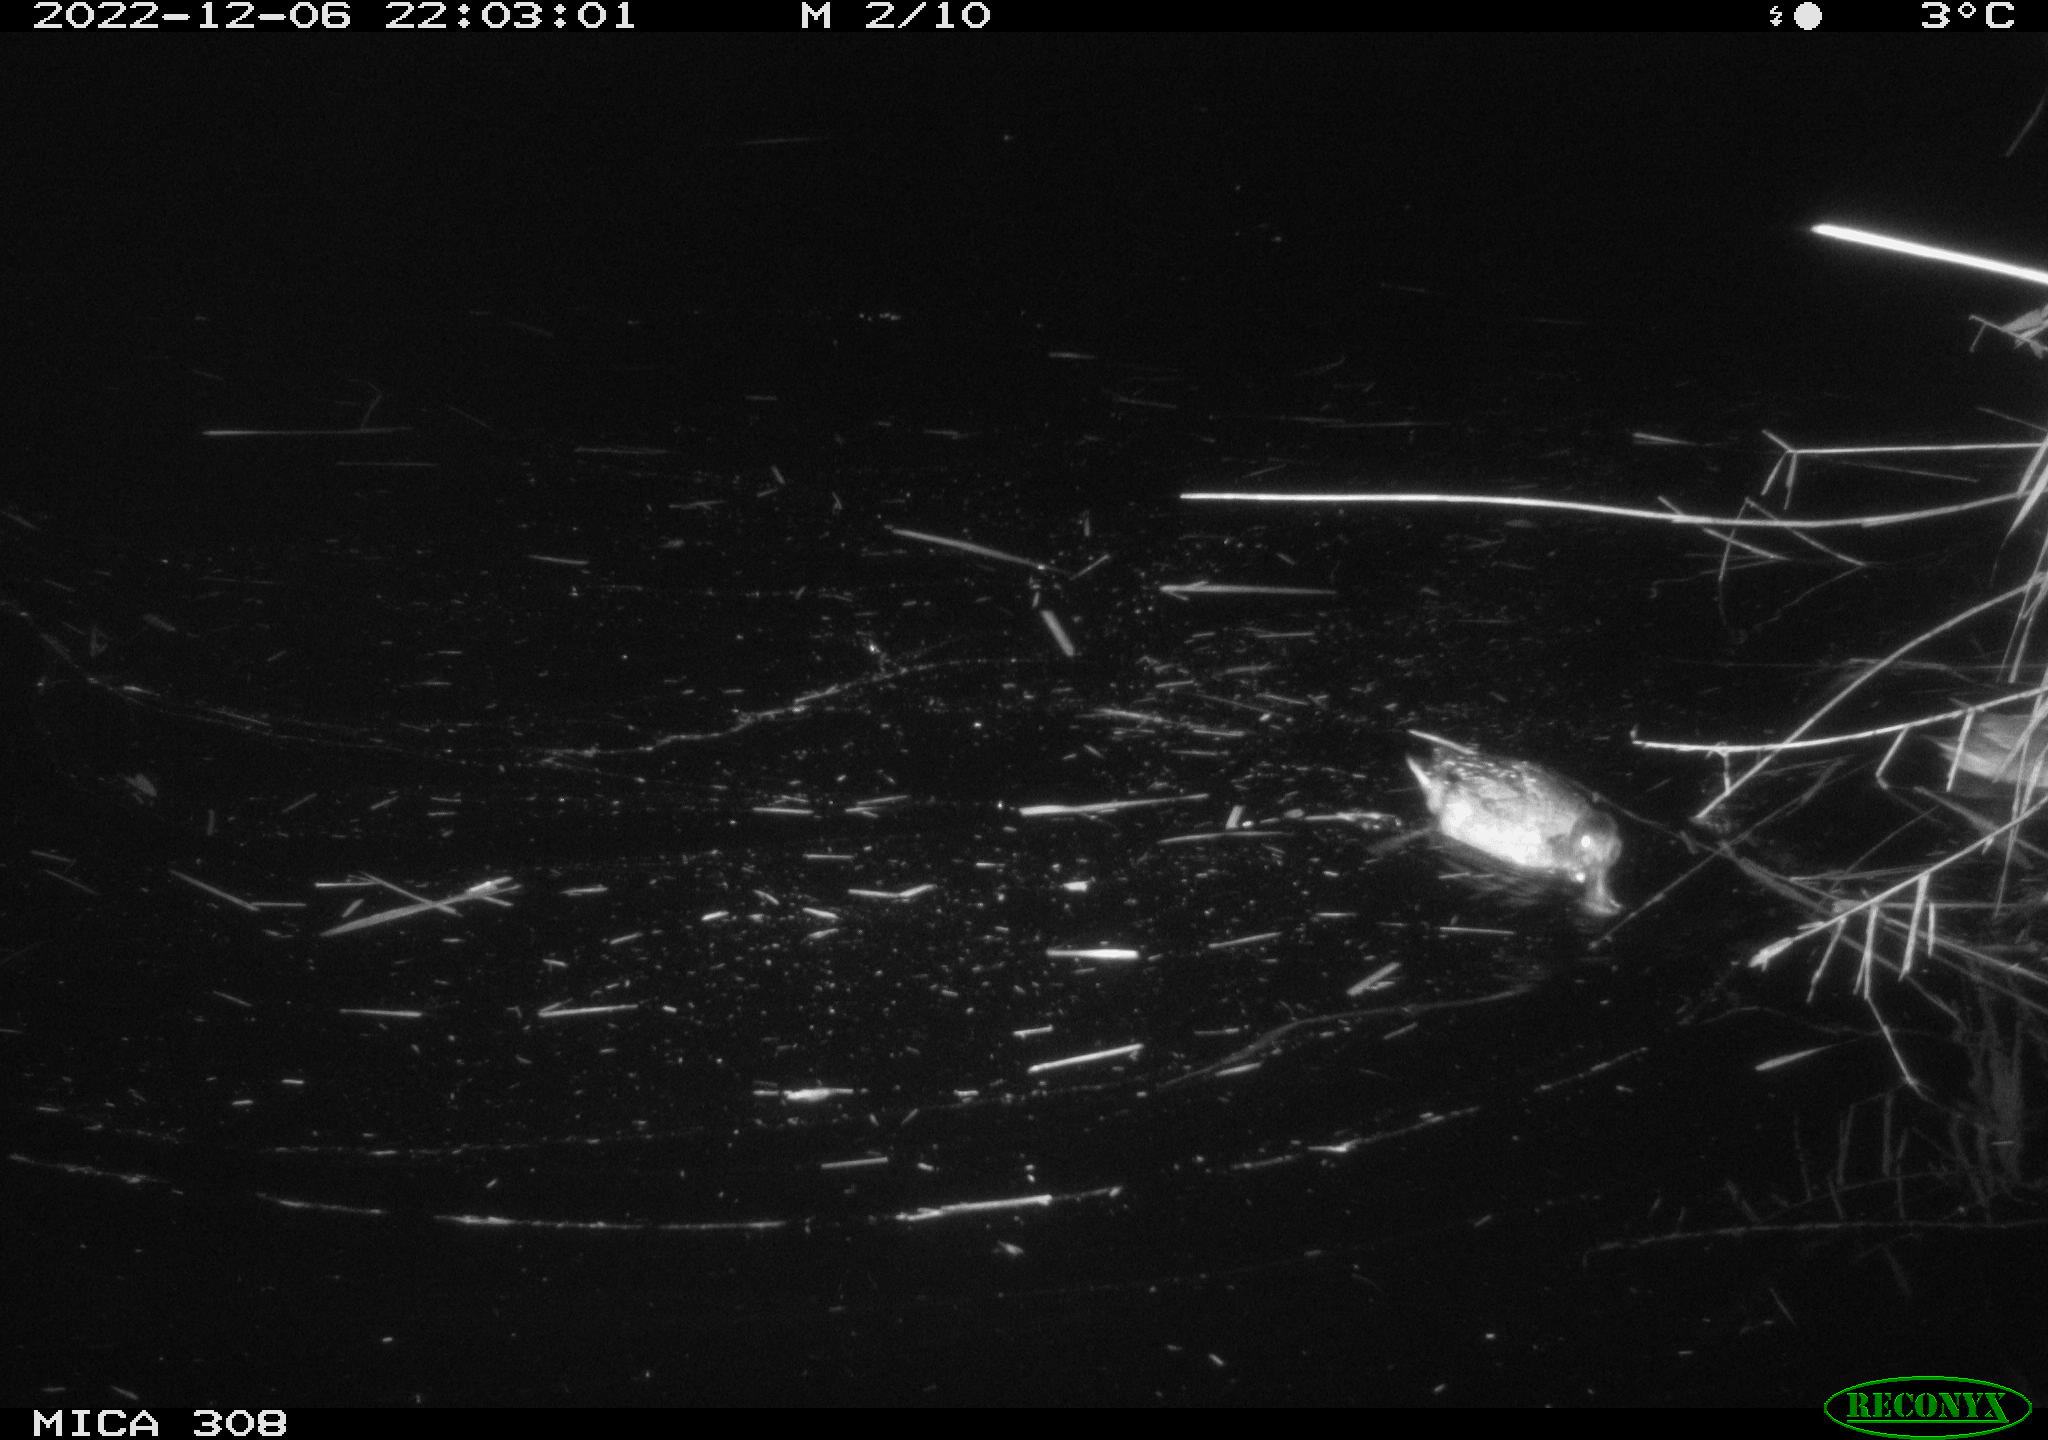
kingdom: Animalia
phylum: Chordata
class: Aves
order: Anseriformes
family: Anatidae
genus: Anas
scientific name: Anas
